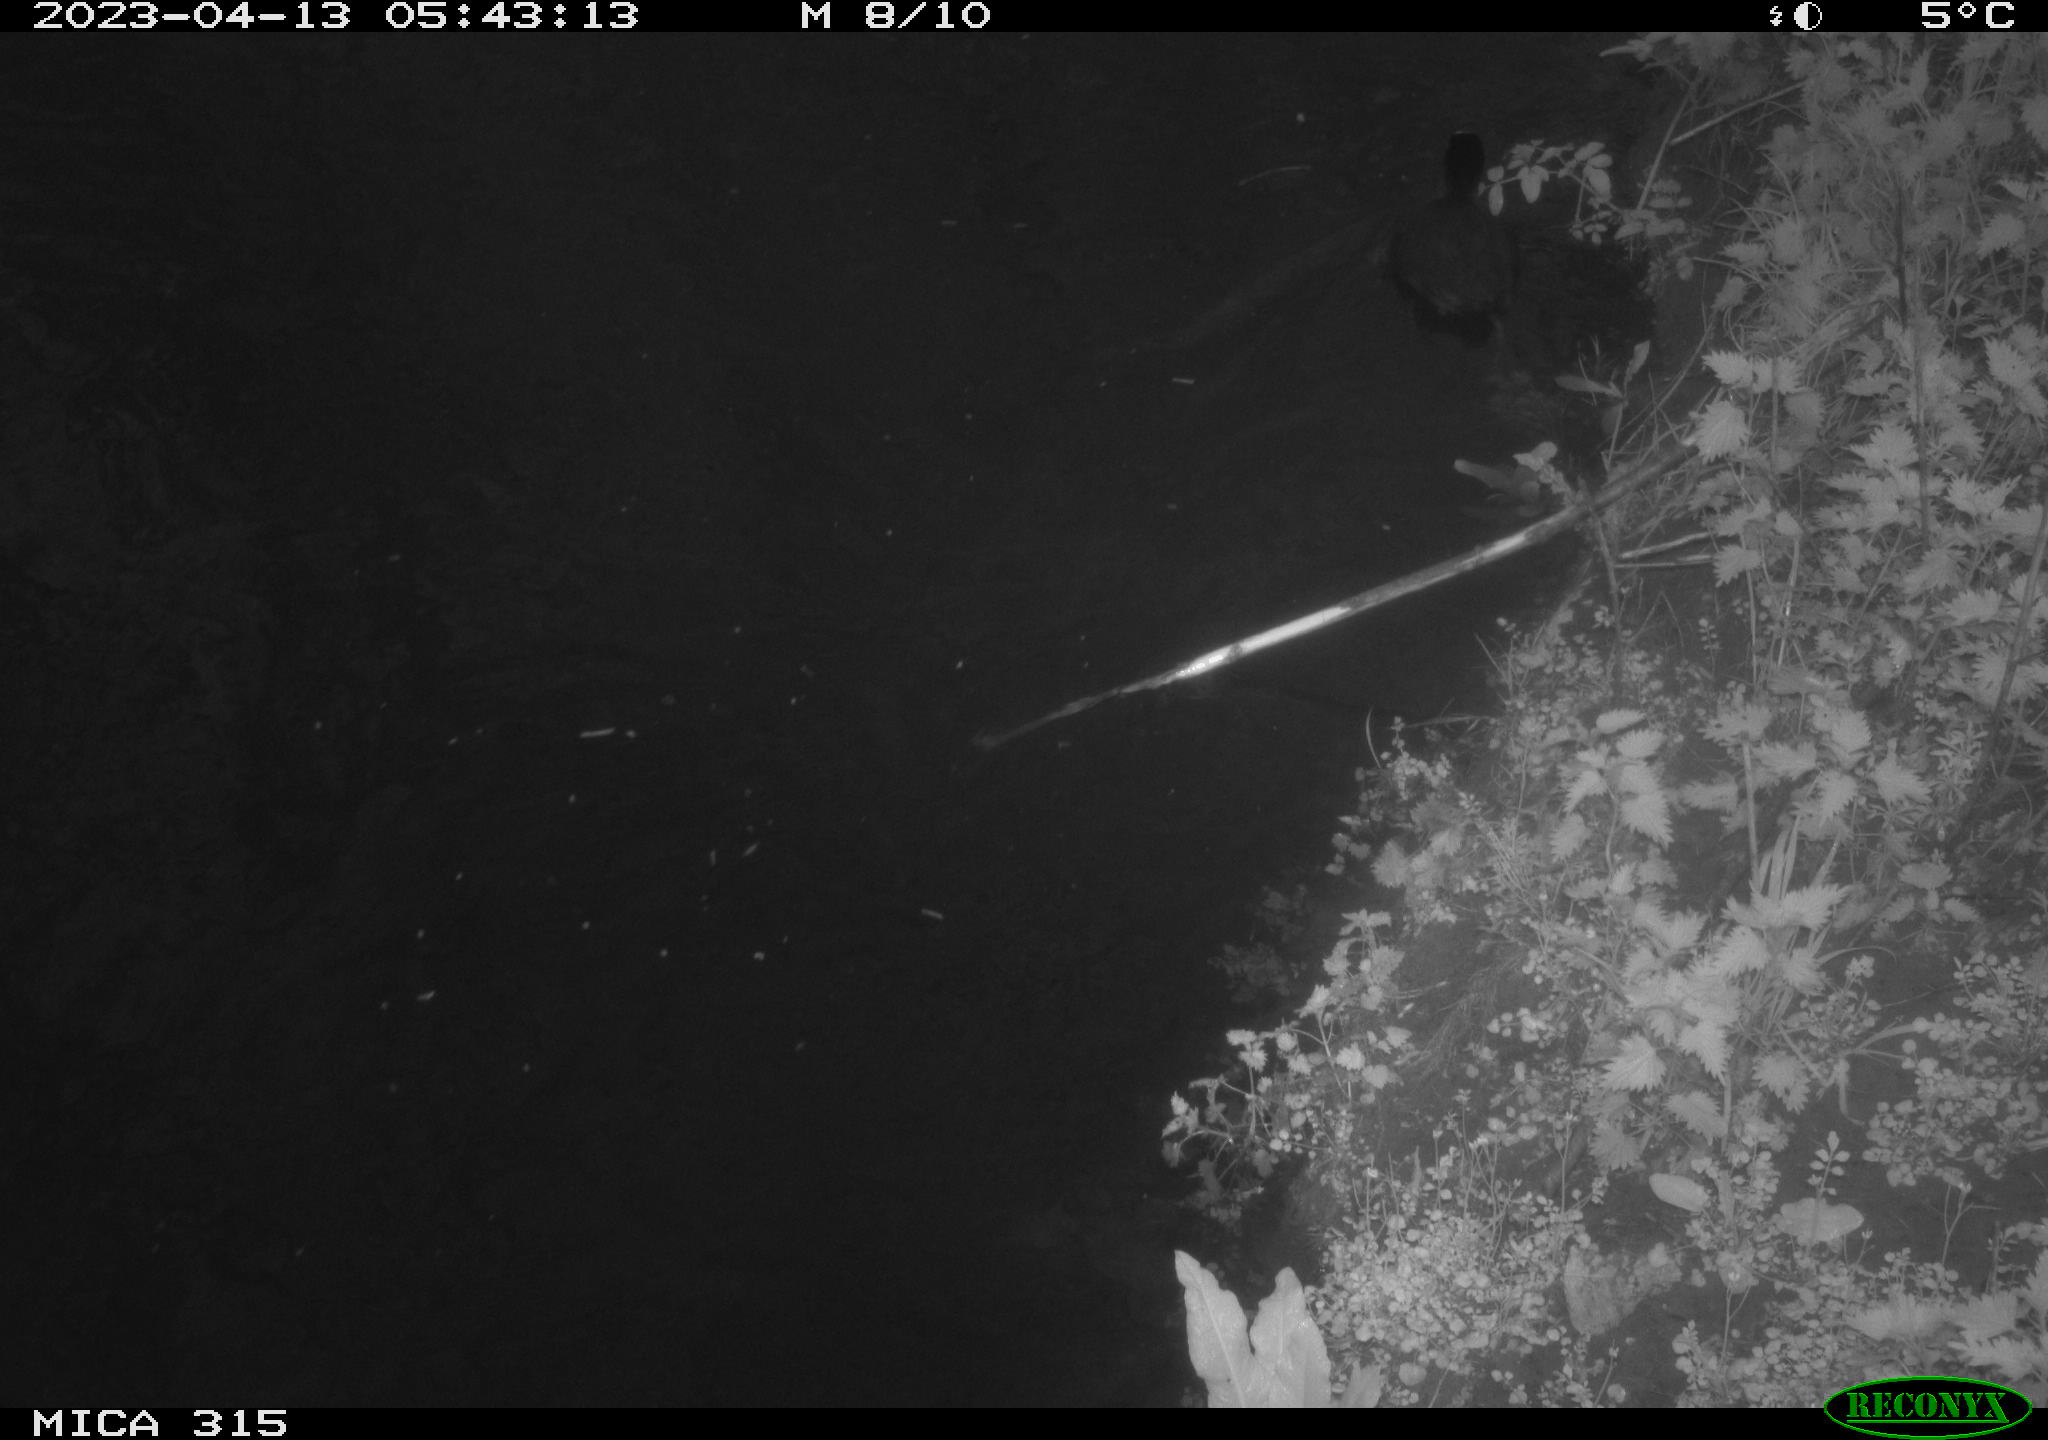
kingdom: Animalia
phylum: Chordata
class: Aves
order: Gruiformes
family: Rallidae
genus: Fulica
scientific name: Fulica atra
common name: Eurasian coot
